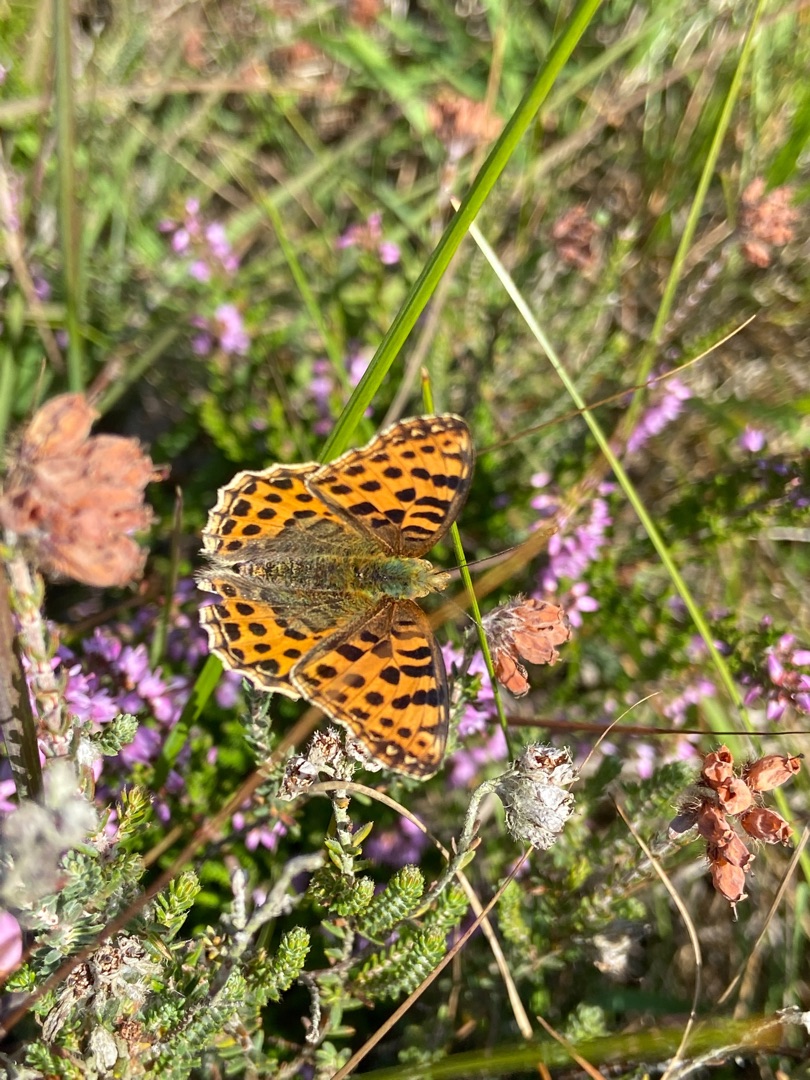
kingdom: Animalia
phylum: Arthropoda
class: Insecta
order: Lepidoptera
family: Nymphalidae
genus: Issoria
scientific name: Issoria lathonia
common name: Storplettet perlemorsommerfugl
